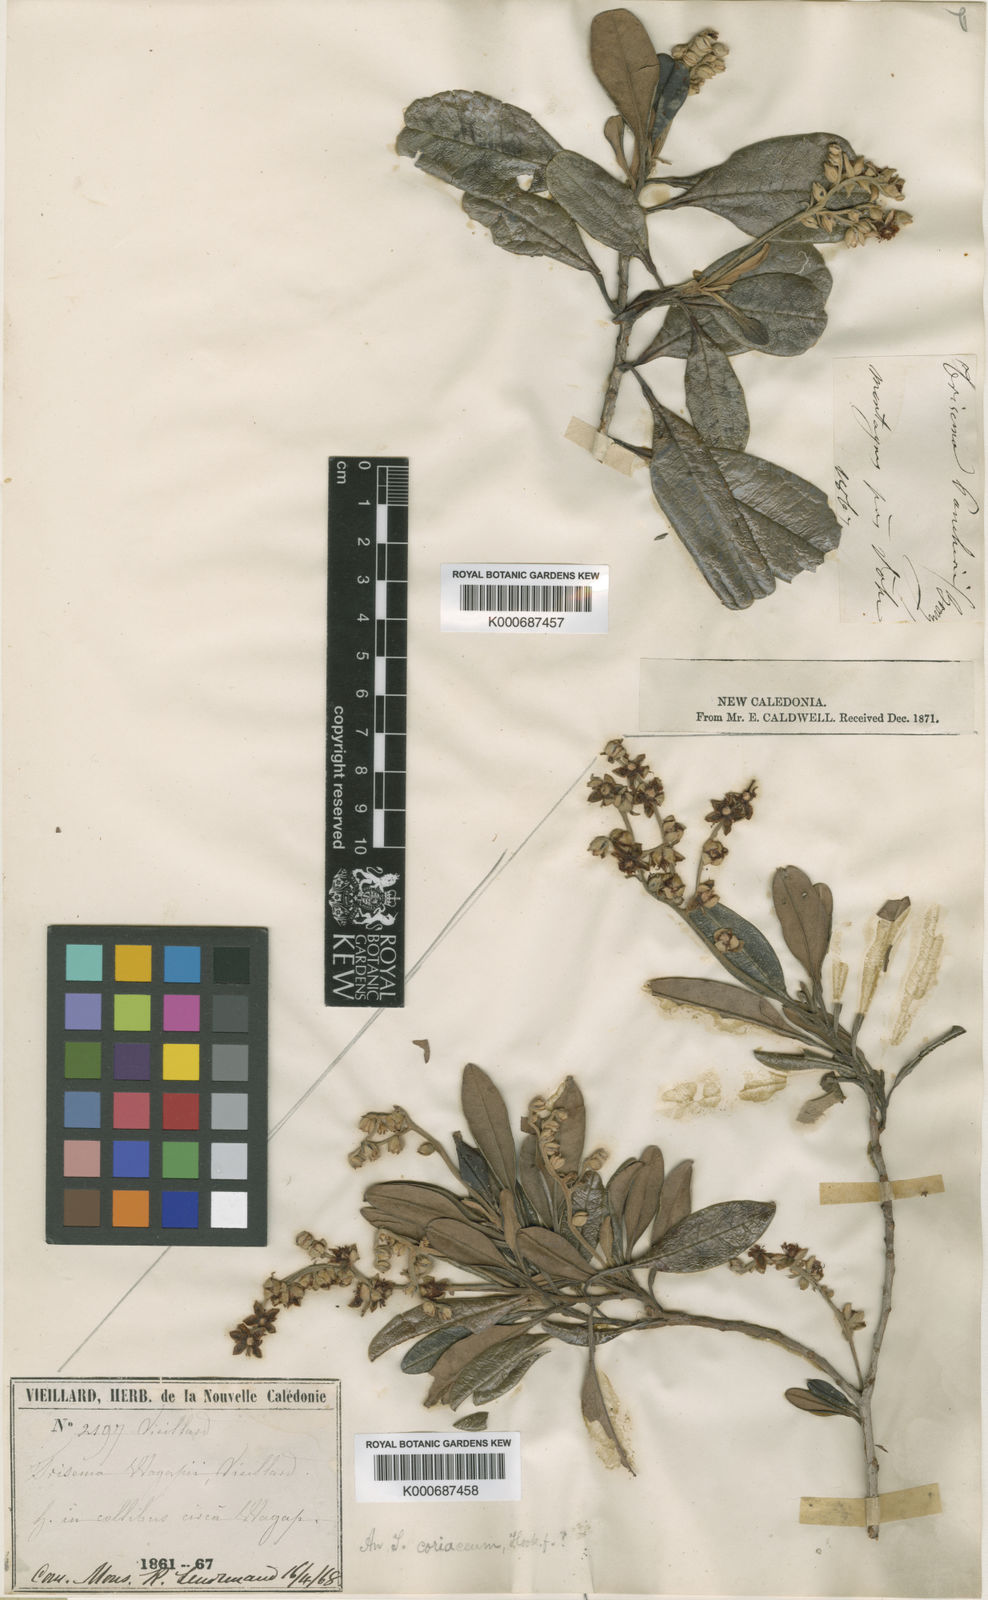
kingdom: Plantae
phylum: Tracheophyta
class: Magnoliopsida
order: Dilleniales
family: Dilleniaceae
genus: Hibbertia
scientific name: Hibbertia
